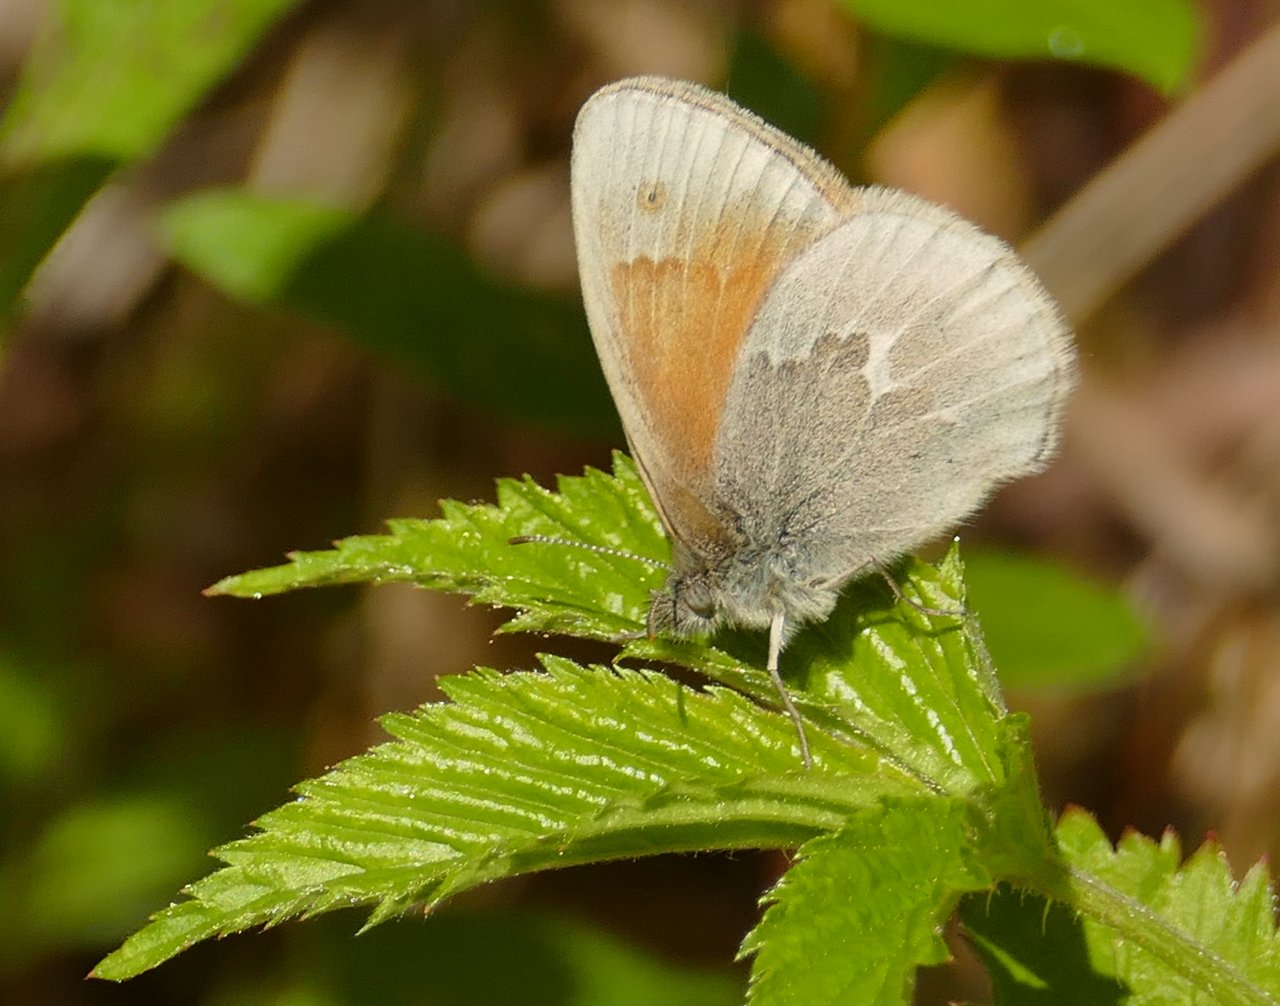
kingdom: Animalia
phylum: Arthropoda
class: Insecta
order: Lepidoptera
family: Nymphalidae
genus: Coenonympha
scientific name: Coenonympha tullia
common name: Large Heath
